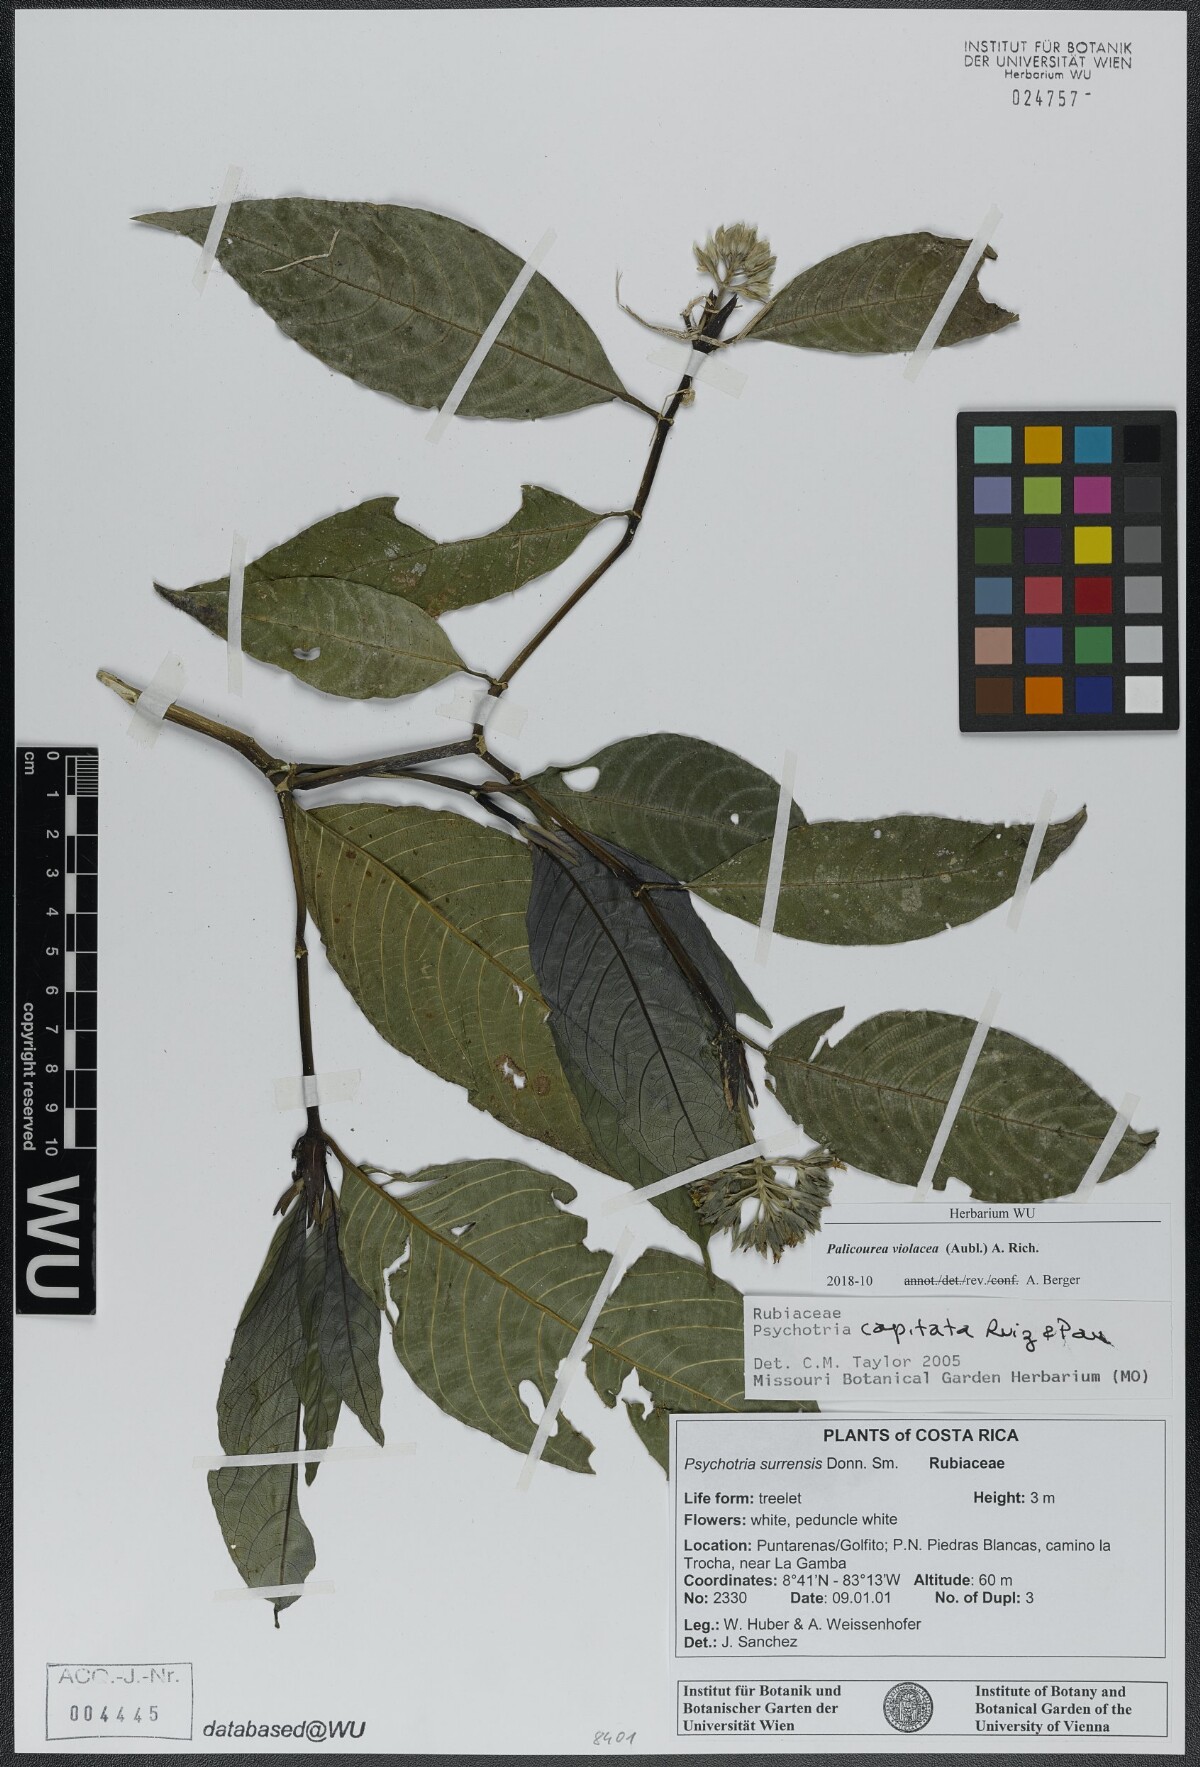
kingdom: Plantae
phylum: Tracheophyta
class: Magnoliopsida
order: Gentianales
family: Rubiaceae
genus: Palicourea
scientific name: Palicourea violacea
